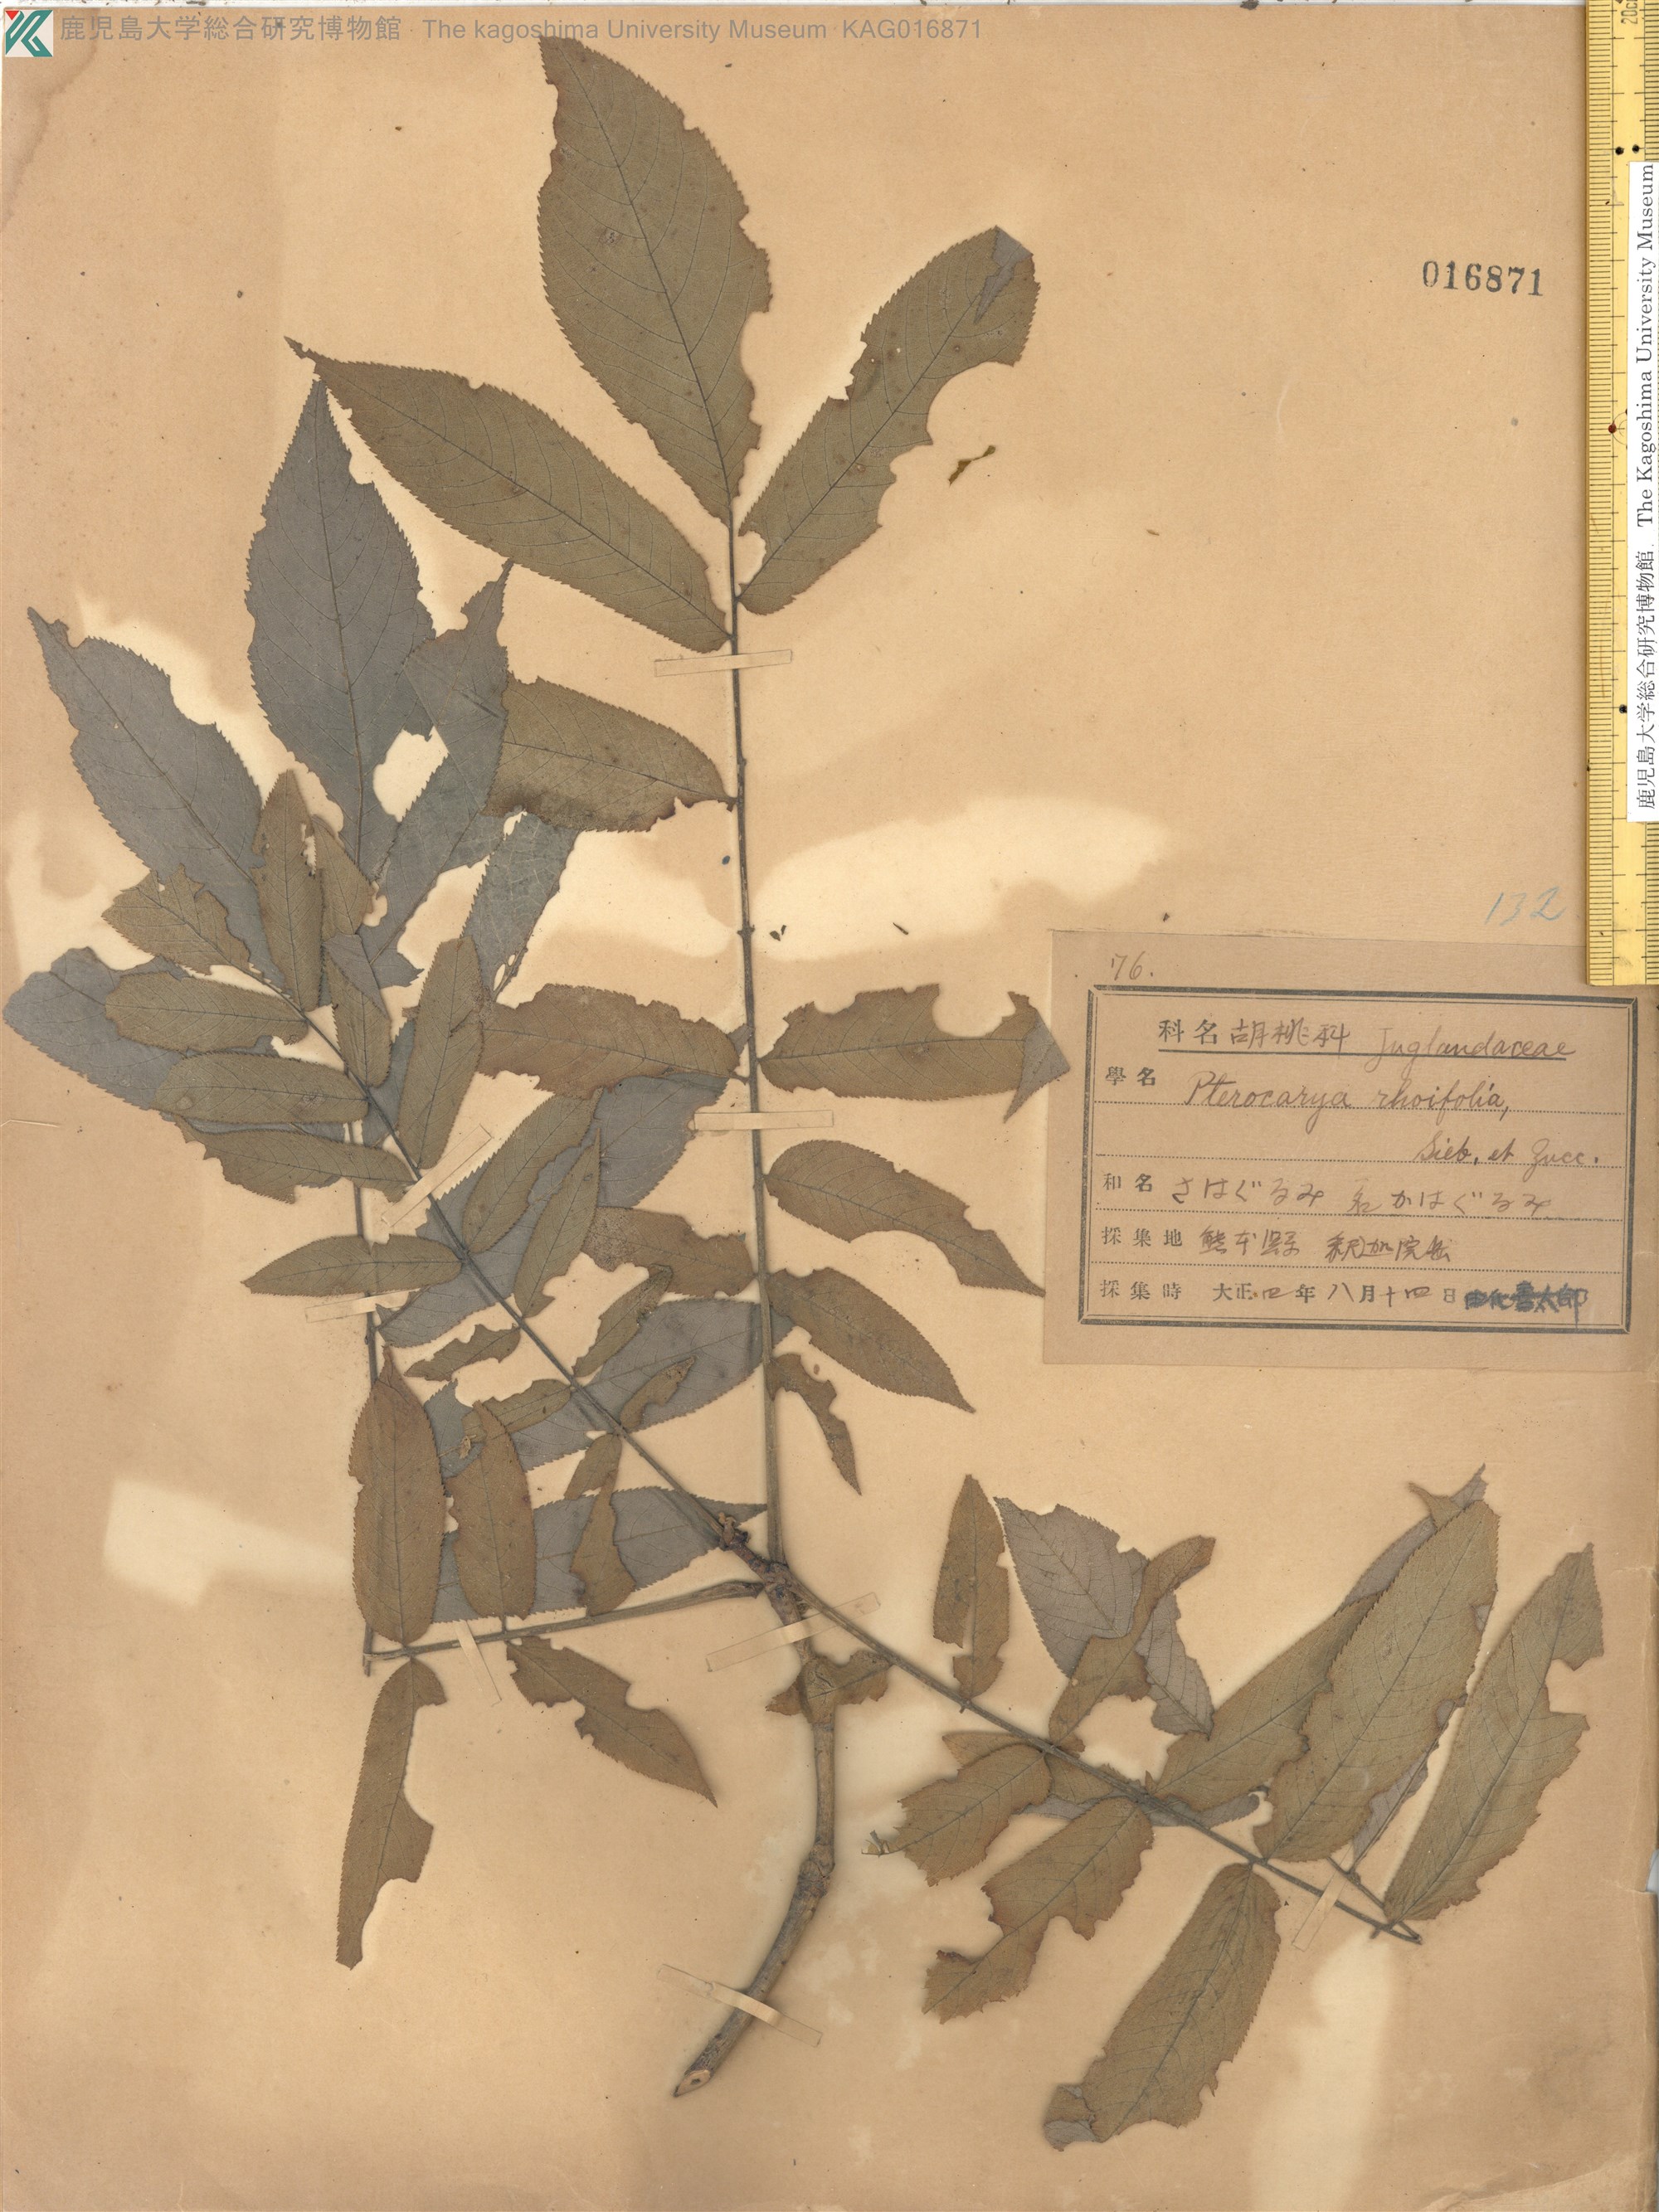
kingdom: Plantae
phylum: Tracheophyta
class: Magnoliopsida
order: Fagales
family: Juglandaceae
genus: Pterocarya
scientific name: Pterocarya rhoifolia
